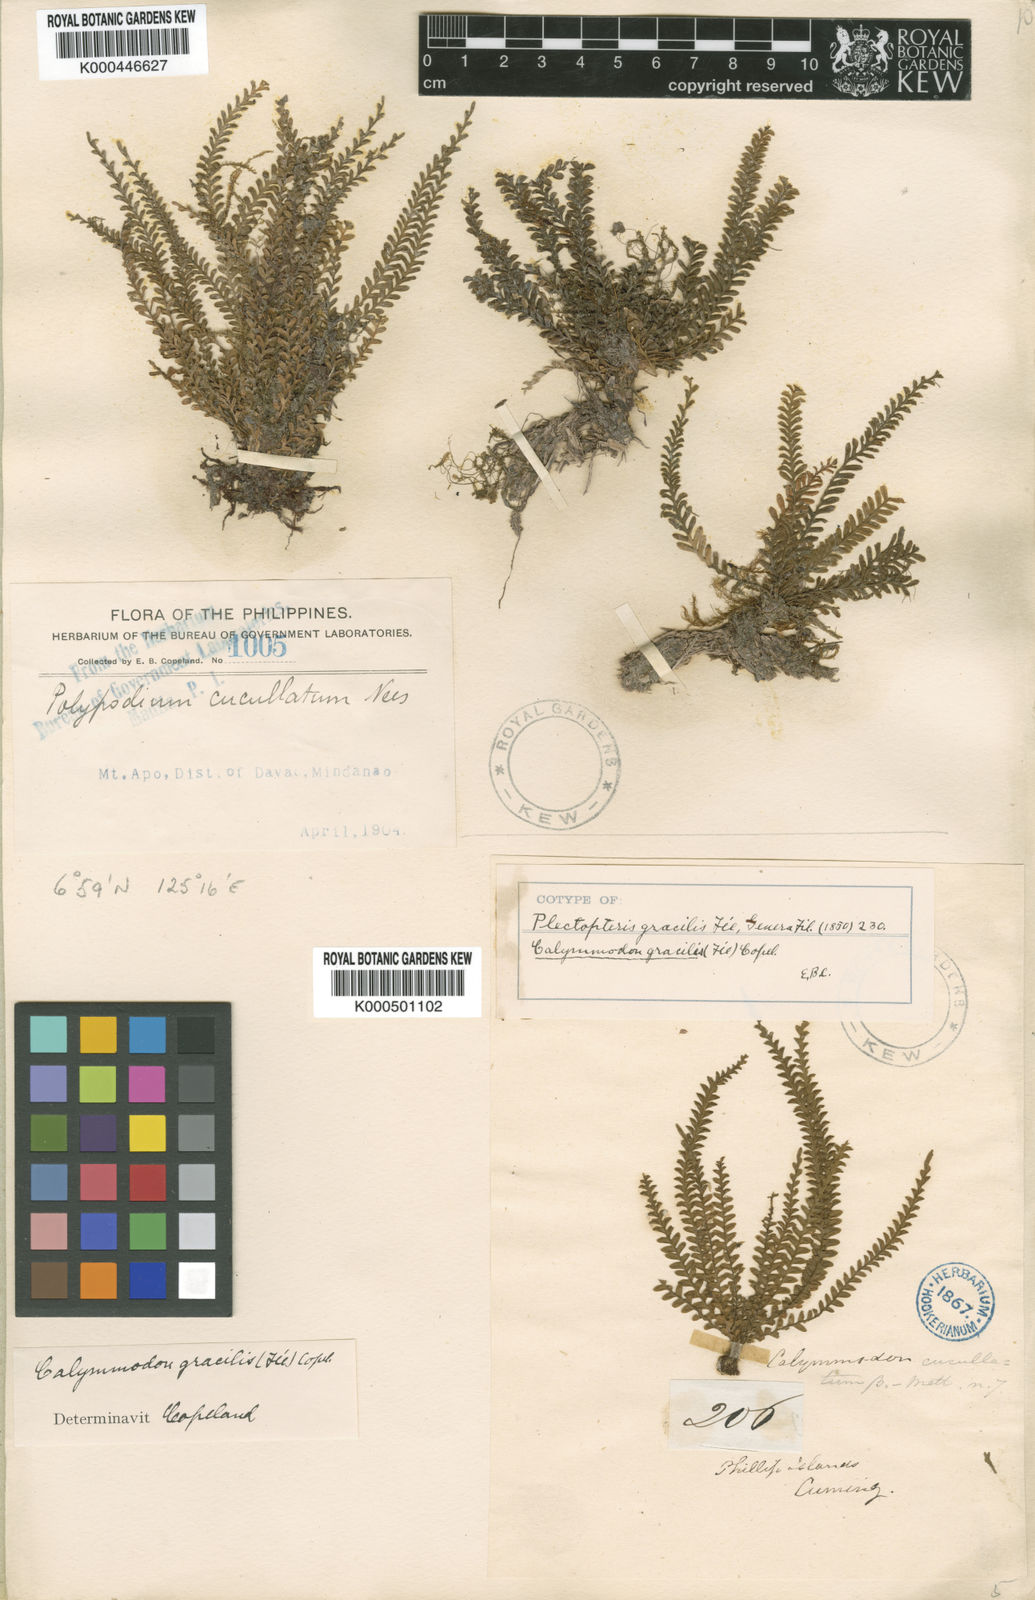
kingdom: Plantae
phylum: Tracheophyta
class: Polypodiopsida
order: Polypodiales
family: Polypodiaceae
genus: Calymmodon
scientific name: Calymmodon gracilis
